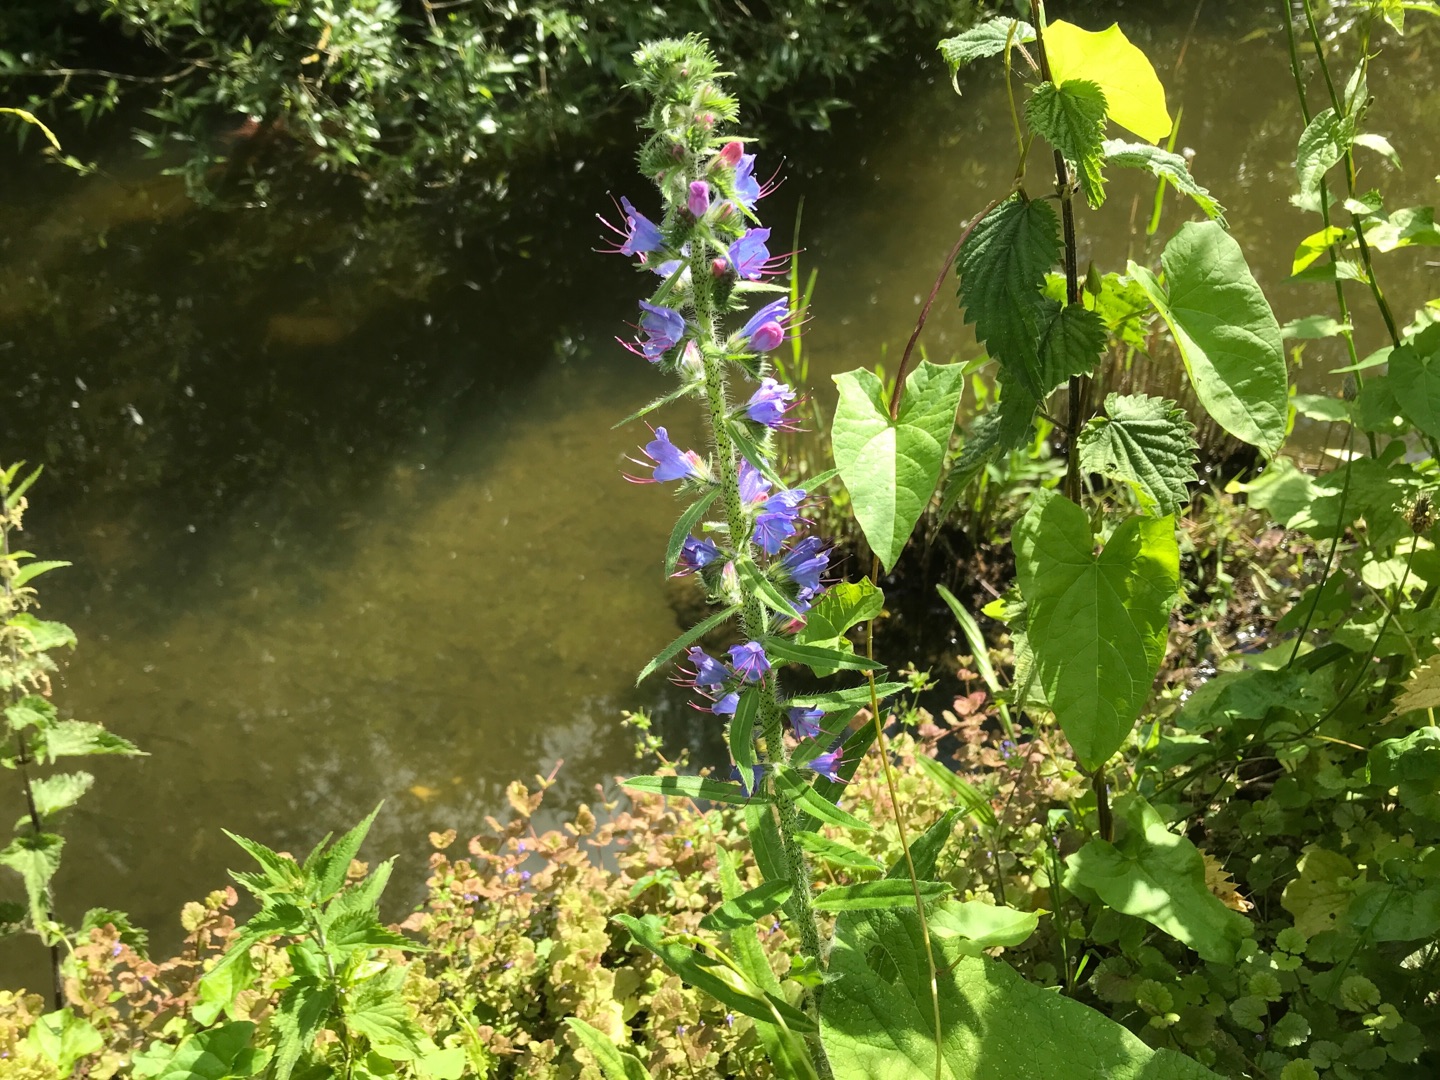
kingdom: Plantae
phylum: Tracheophyta
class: Magnoliopsida
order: Boraginales
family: Boraginaceae
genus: Echium
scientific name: Echium vulgare
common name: Slangehoved
